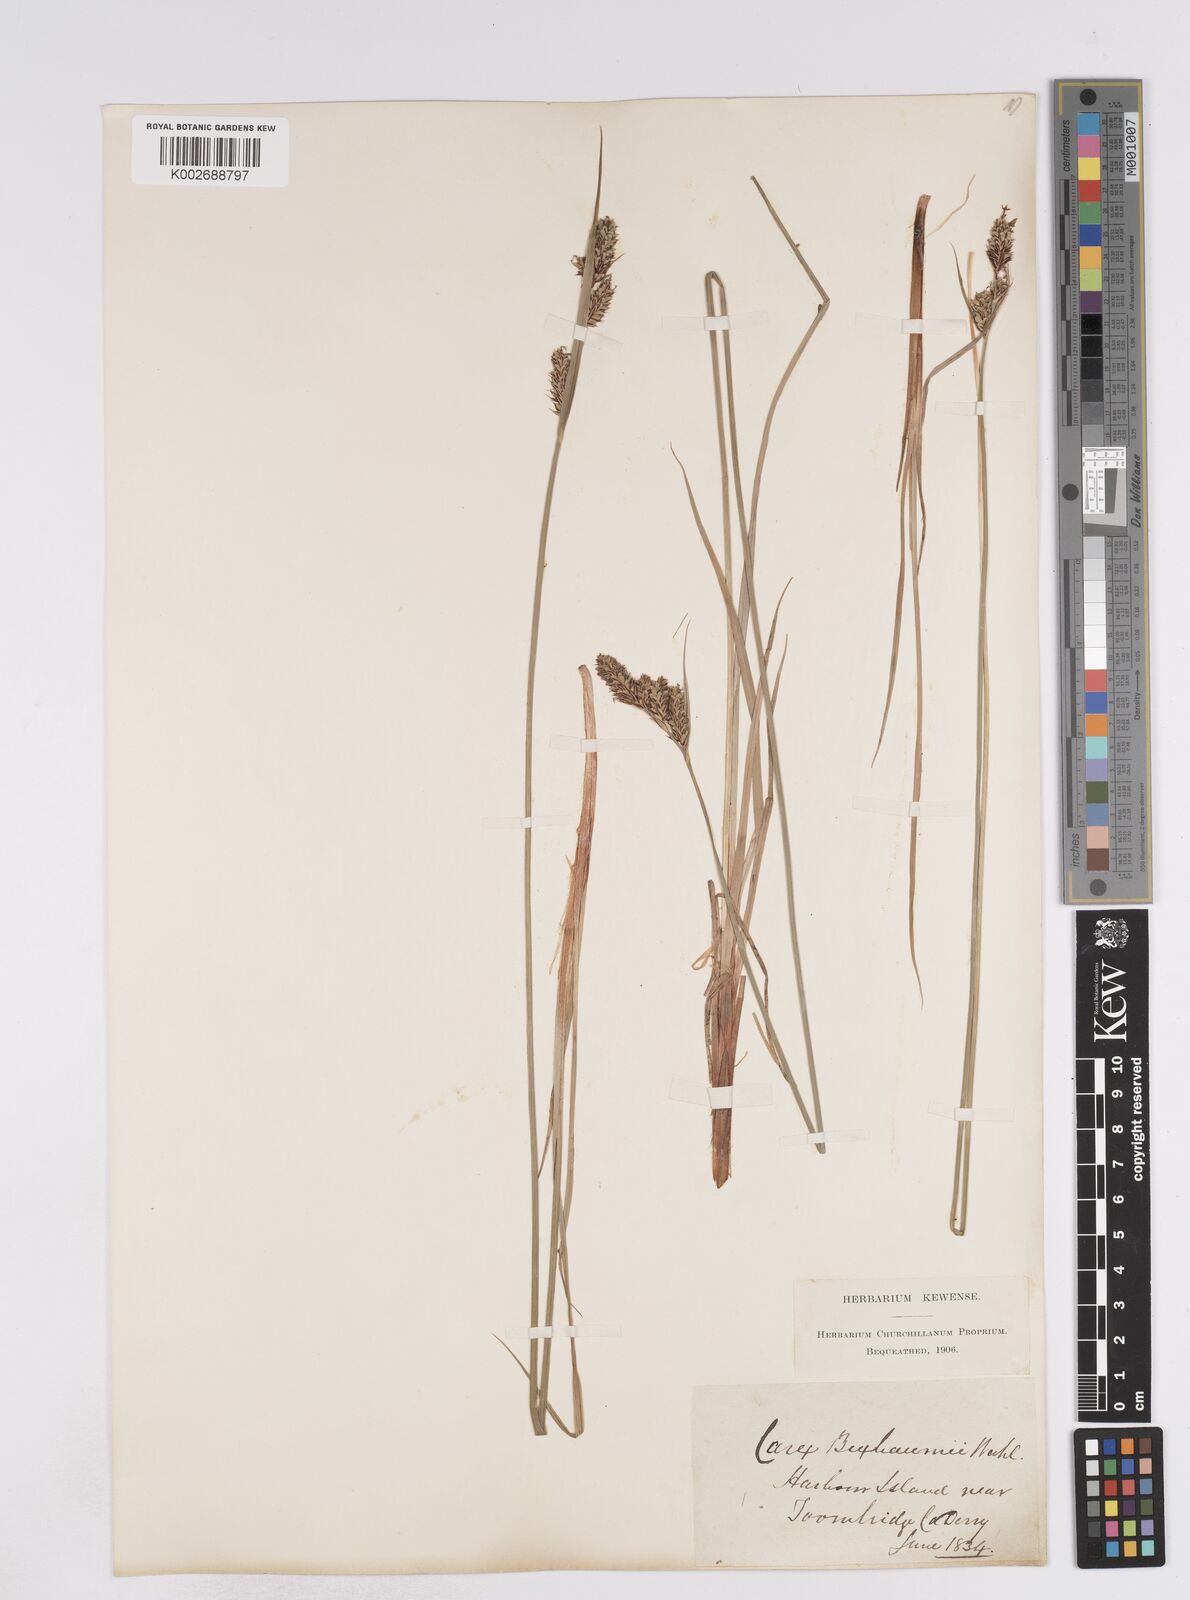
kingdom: Plantae
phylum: Tracheophyta
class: Liliopsida
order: Poales
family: Cyperaceae
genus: Carex
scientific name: Carex buxbaumii
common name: Club sedge
